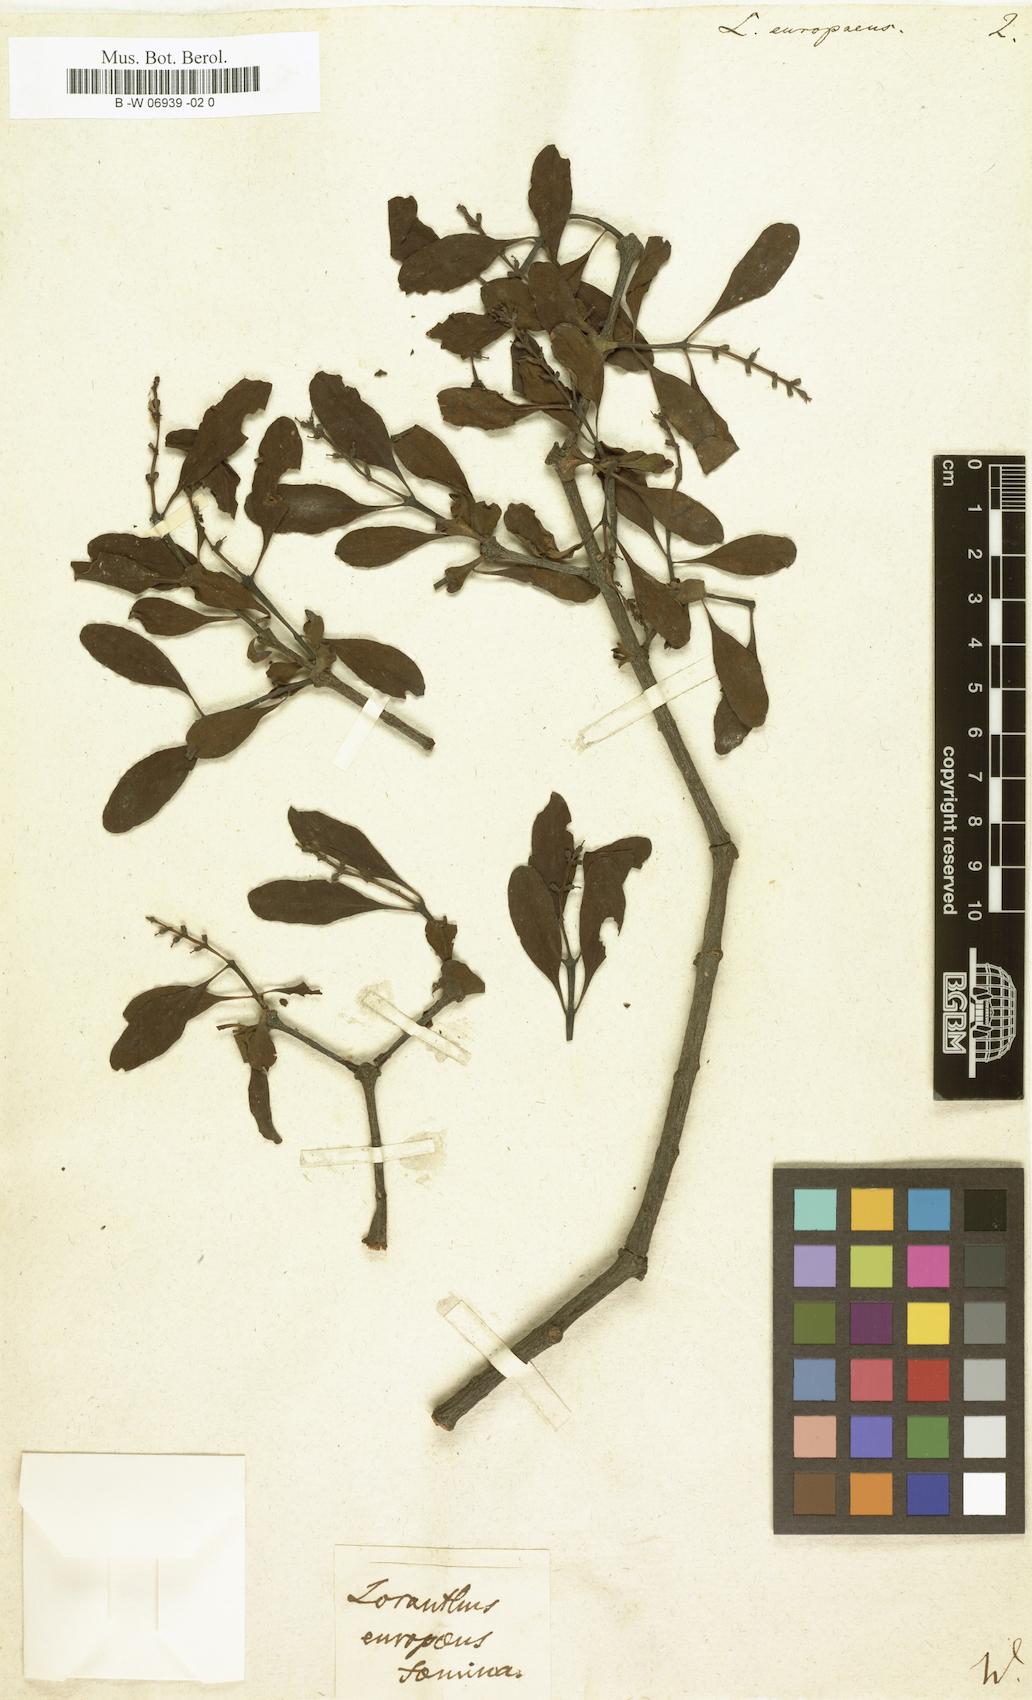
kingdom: Plantae
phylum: Tracheophyta
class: Magnoliopsida
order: Santalales
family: Loranthaceae
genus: Loranthus
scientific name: Loranthus europaeus
